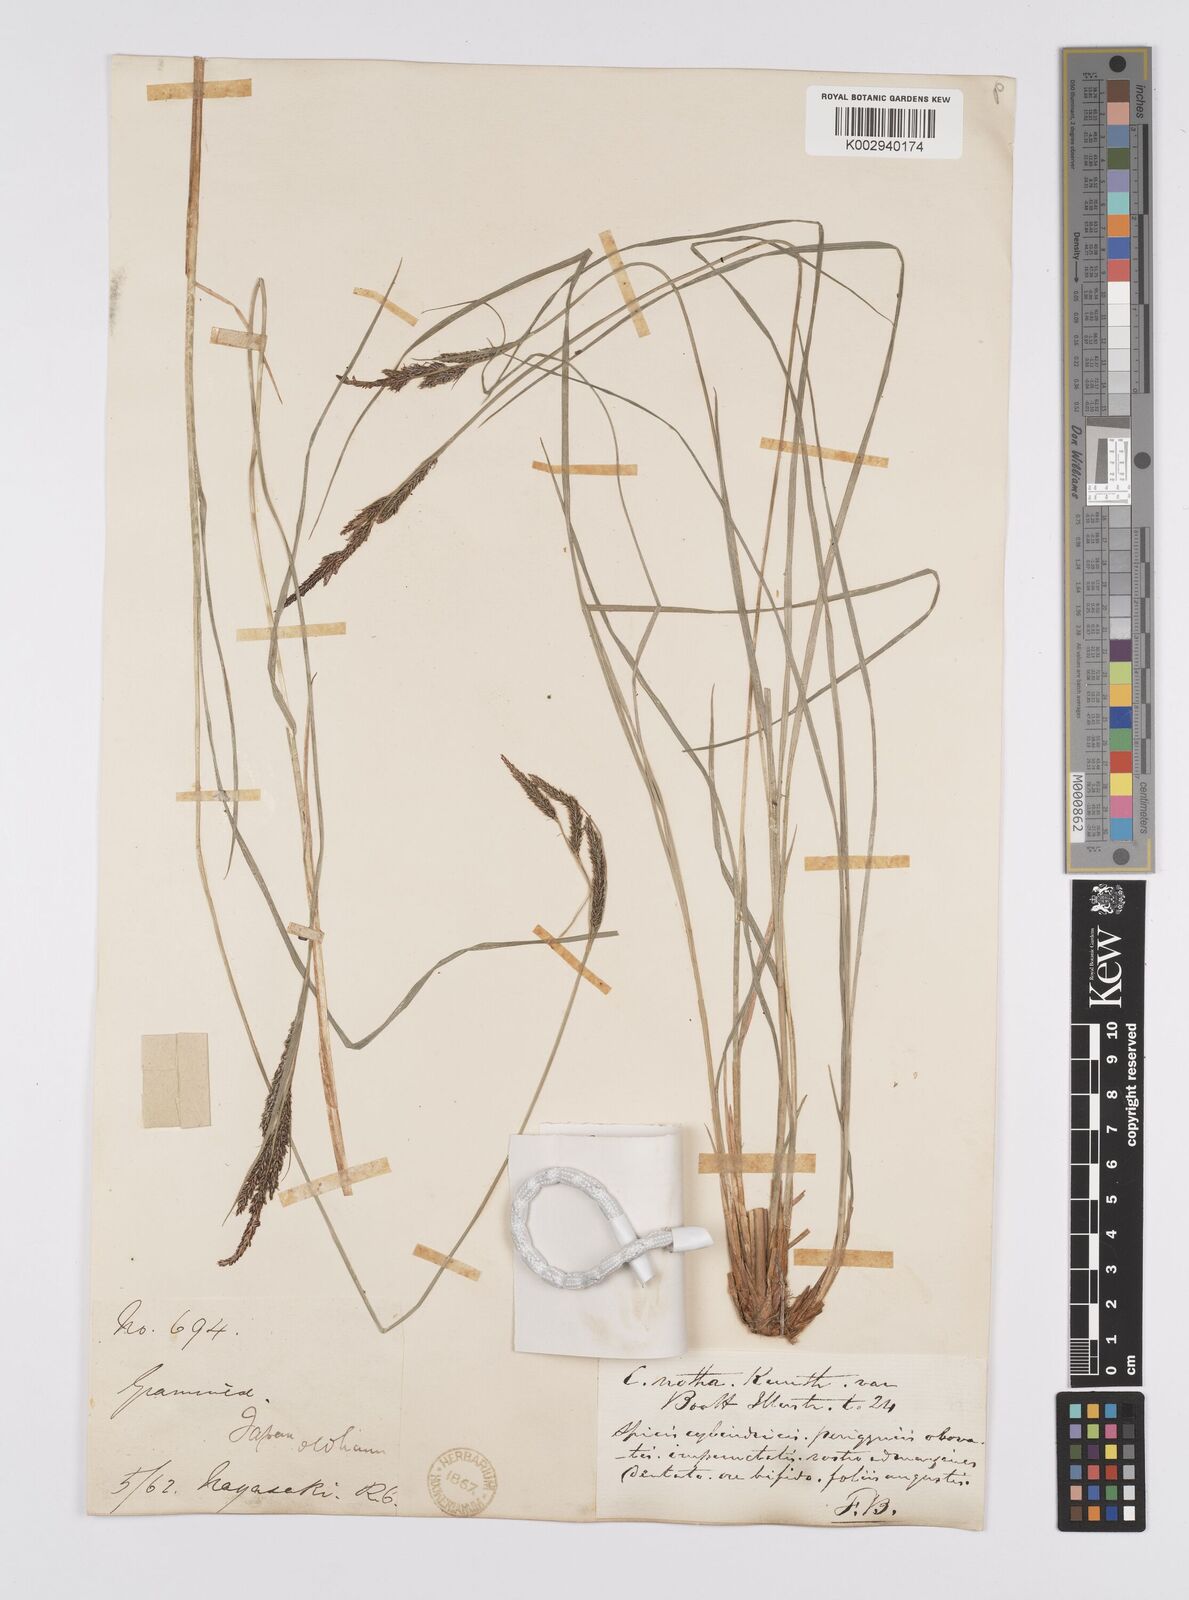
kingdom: Plantae
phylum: Tracheophyta
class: Liliopsida
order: Poales
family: Cyperaceae
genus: Carex
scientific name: Carex forficula
